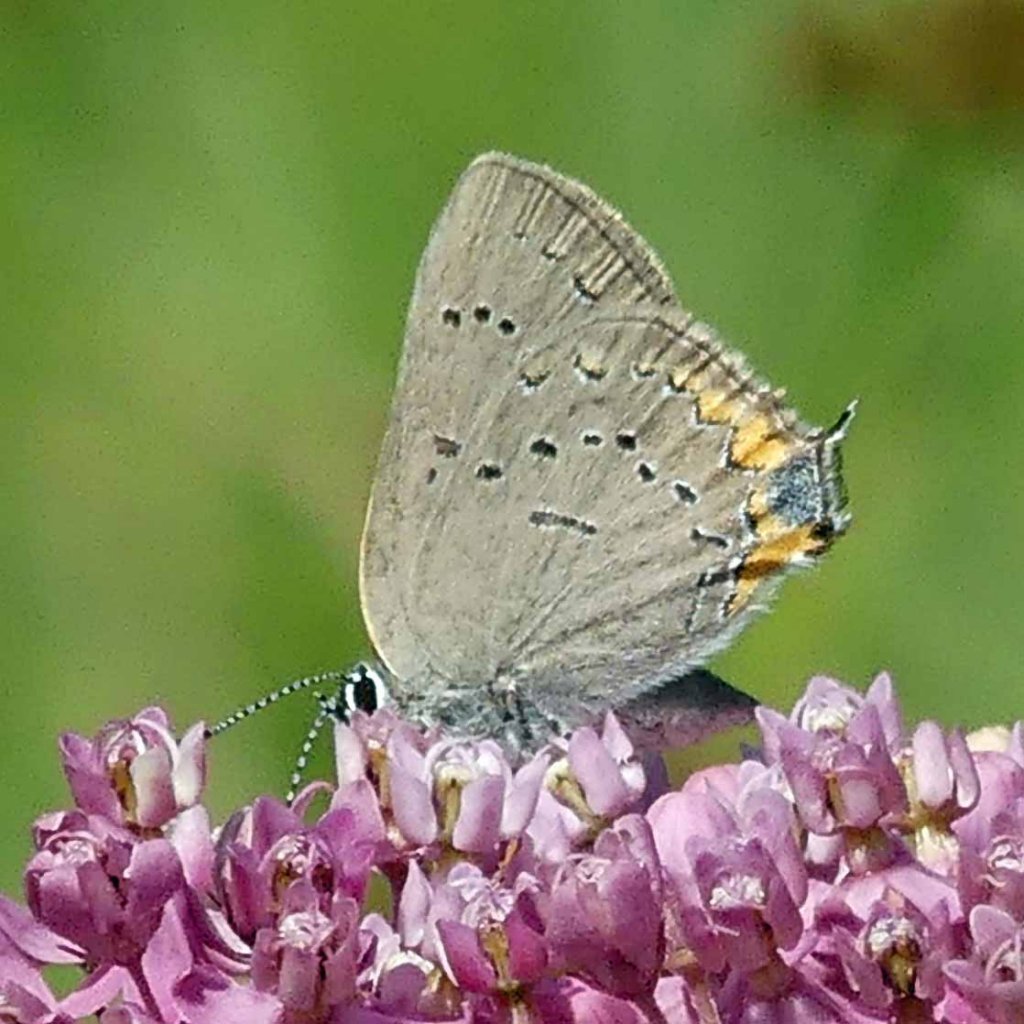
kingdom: Animalia
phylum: Arthropoda
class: Insecta
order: Lepidoptera
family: Lycaenidae
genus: Strymon
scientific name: Strymon acadica
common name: Acadian Hairstreak
